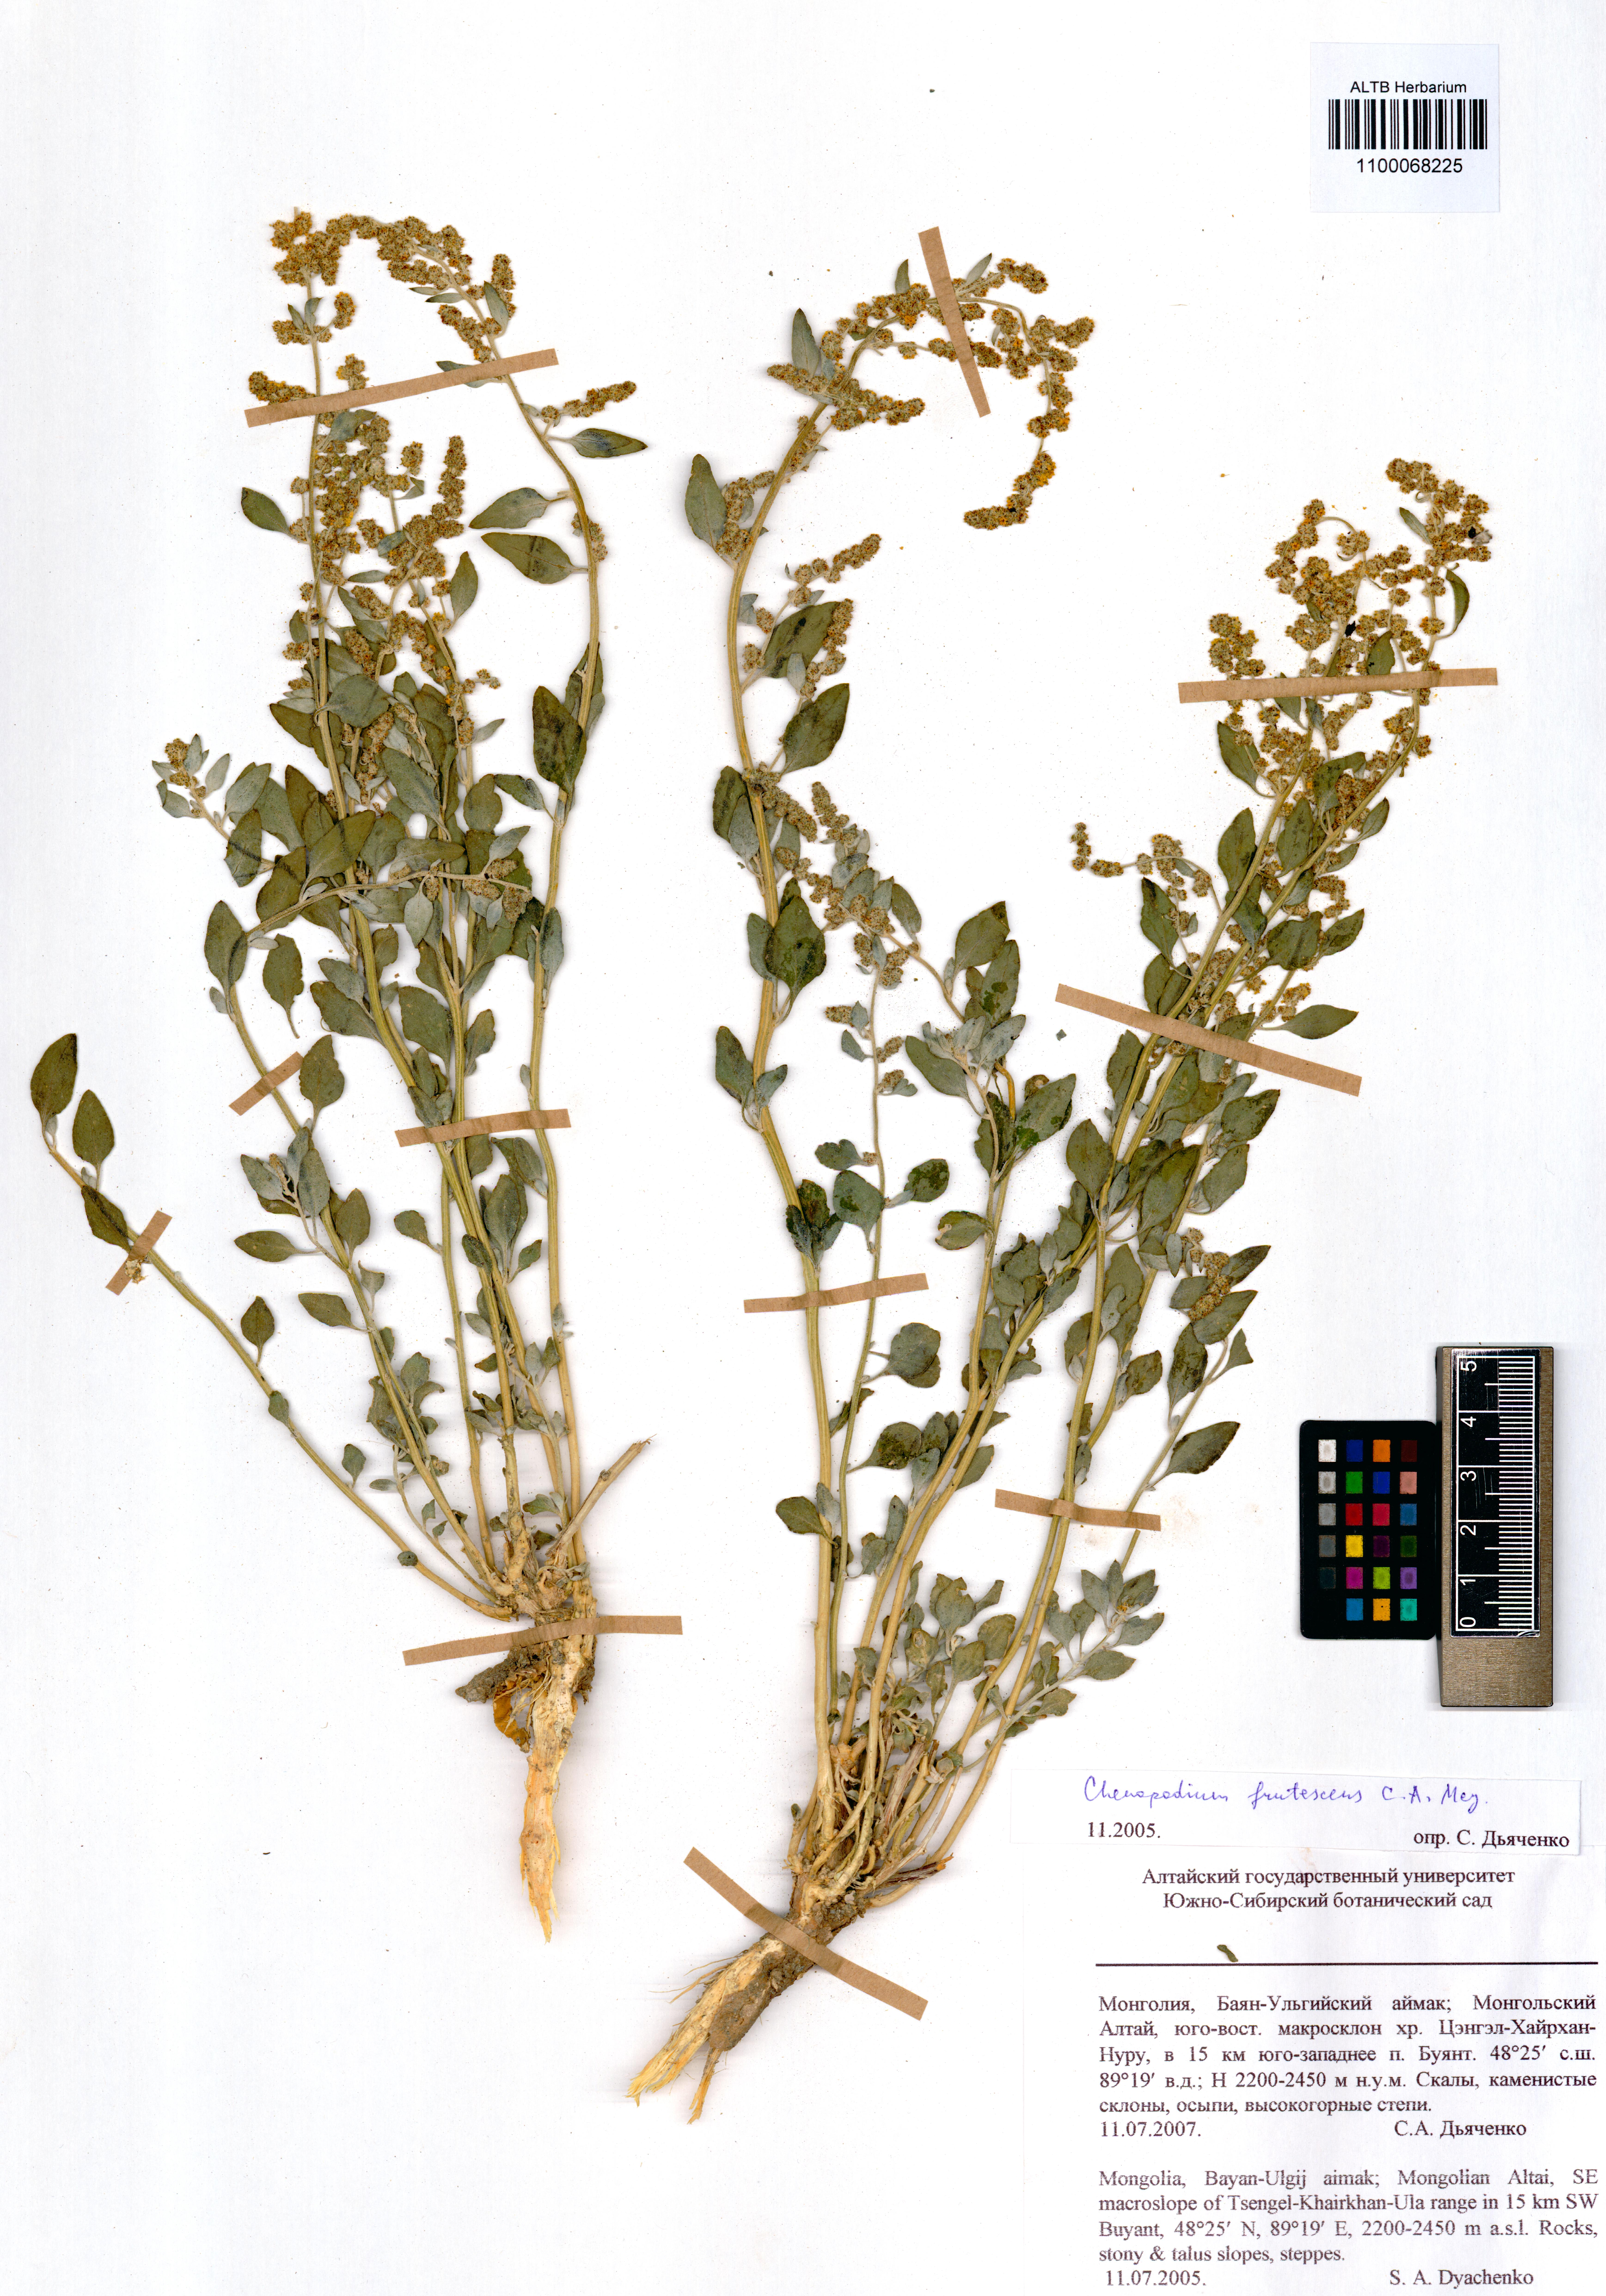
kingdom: Plantae
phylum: Tracheophyta
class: Magnoliopsida
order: Caryophyllales
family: Amaranthaceae
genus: Chenopodium
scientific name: Chenopodium frutescens
